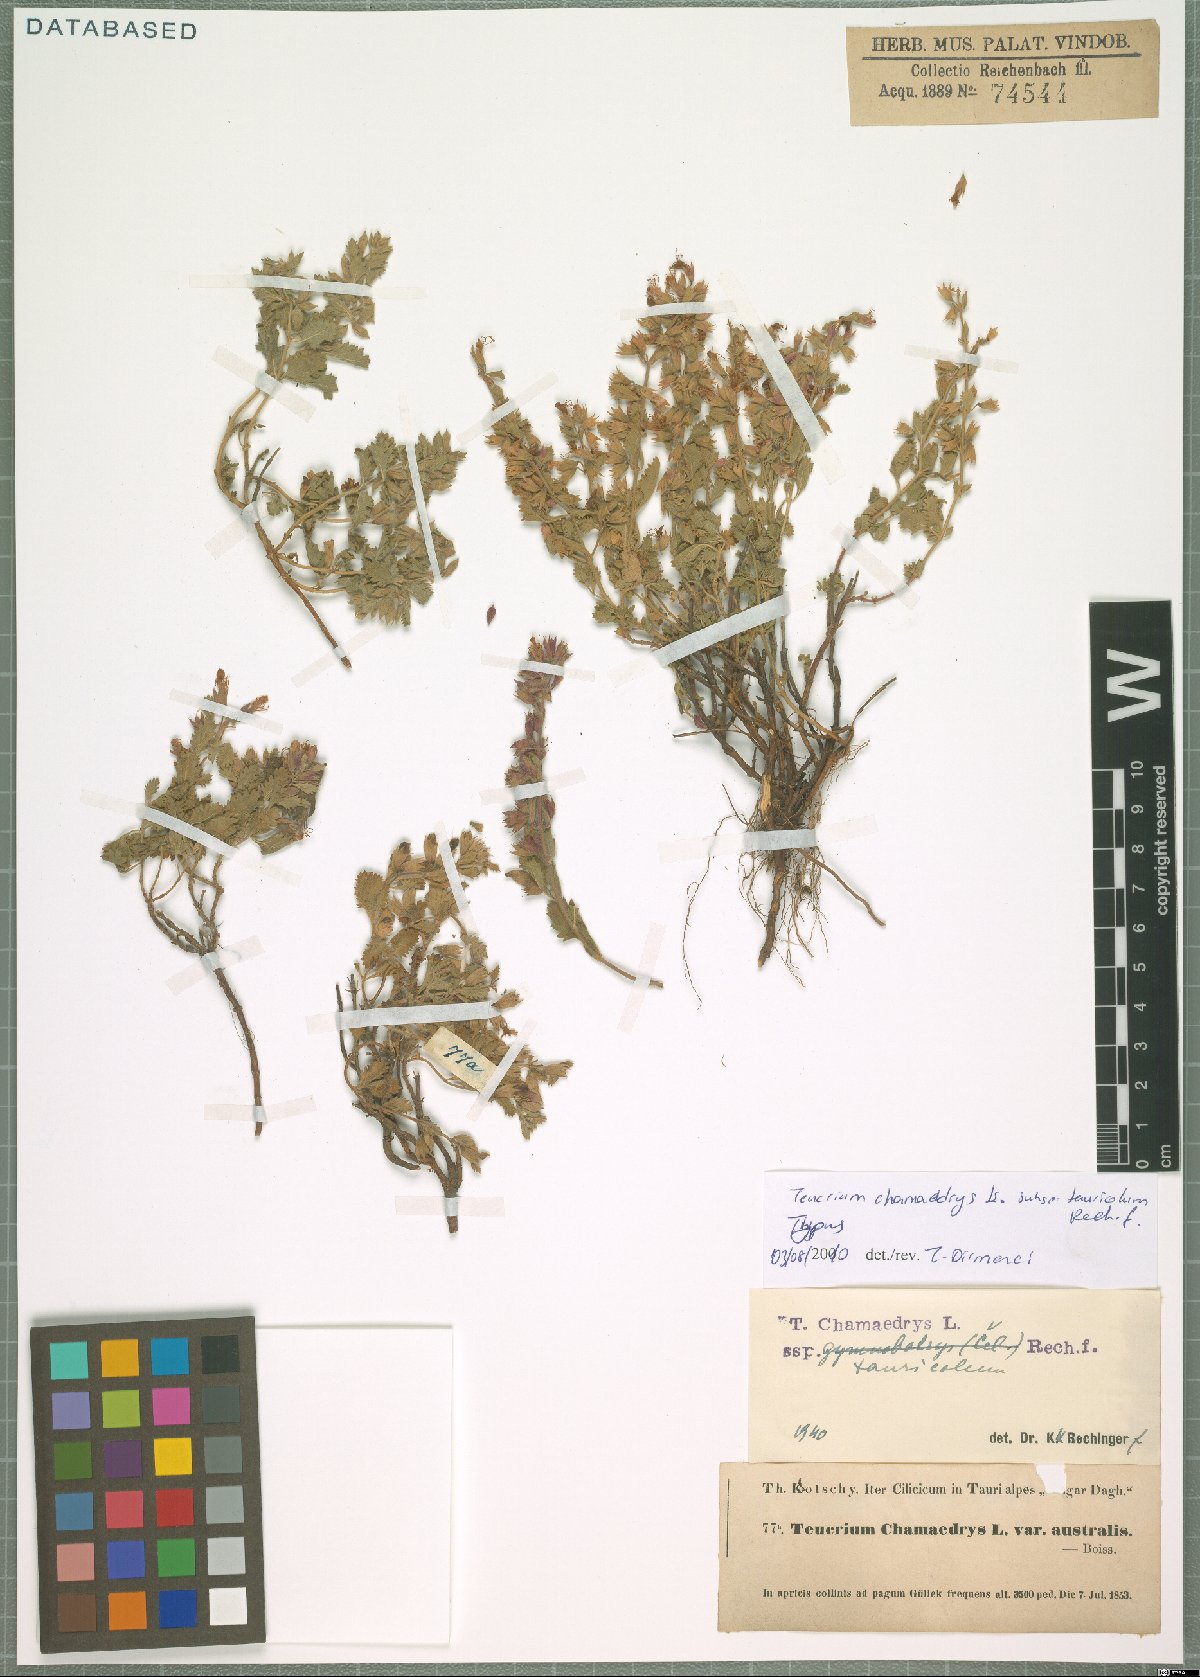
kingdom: Plantae
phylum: Tracheophyta
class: Magnoliopsida
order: Lamiales
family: Lamiaceae
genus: Teucrium
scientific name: Teucrium chamaedrys
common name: Wall germander
